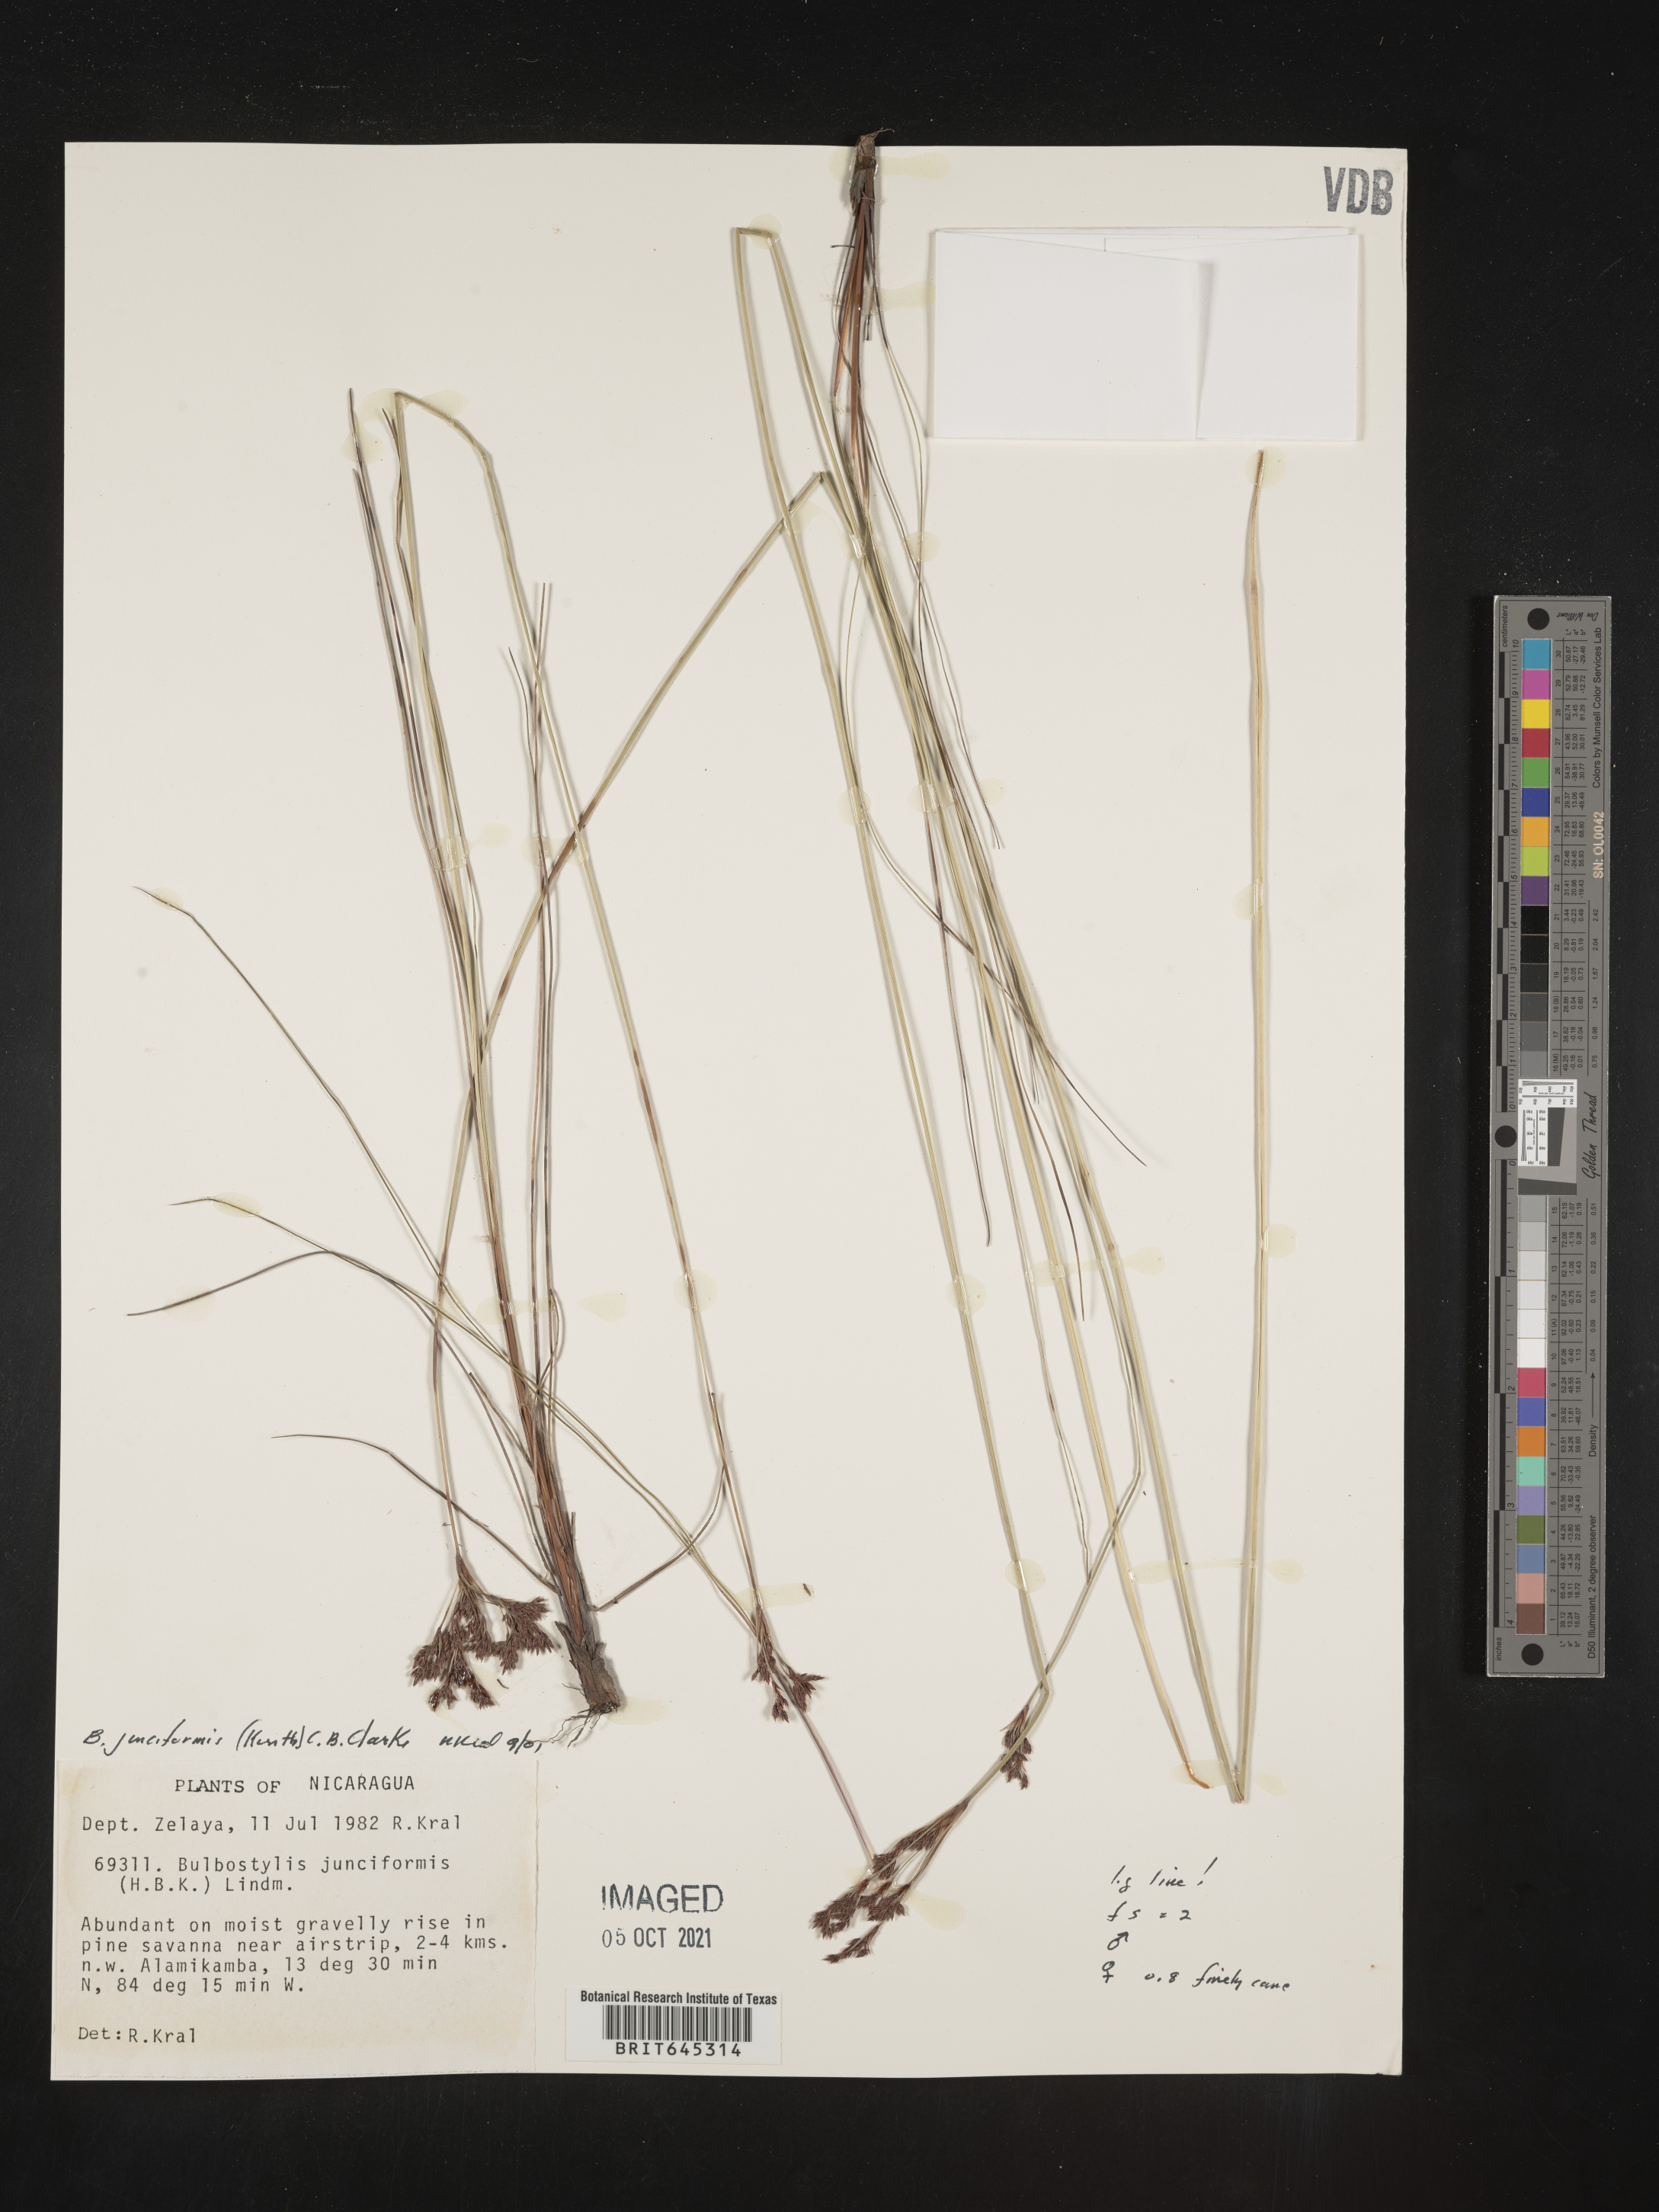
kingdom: Plantae
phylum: Tracheophyta
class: Liliopsida
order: Poales
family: Cyperaceae
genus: Bulbostylis
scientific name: Bulbostylis junciformis
